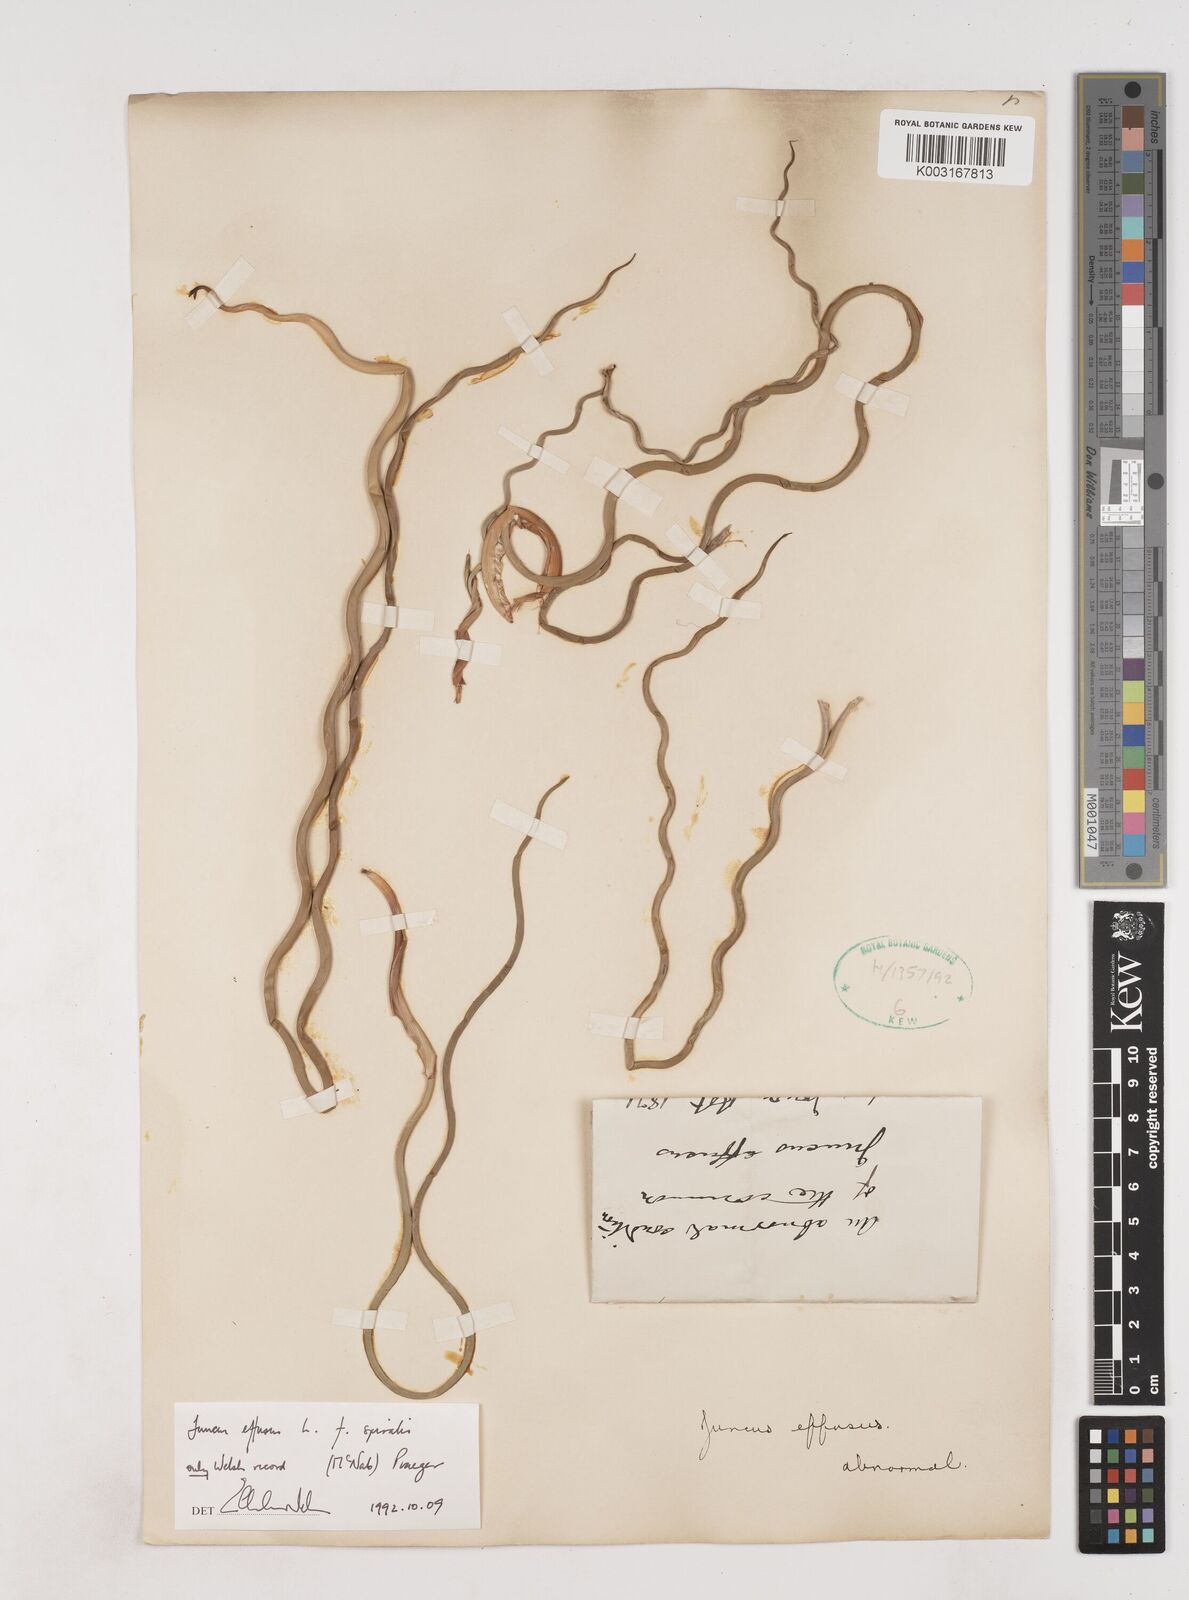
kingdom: Plantae
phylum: Tracheophyta
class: Liliopsida
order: Poales
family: Juncaceae
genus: Juncus
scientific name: Juncus effusus
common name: Soft rush
